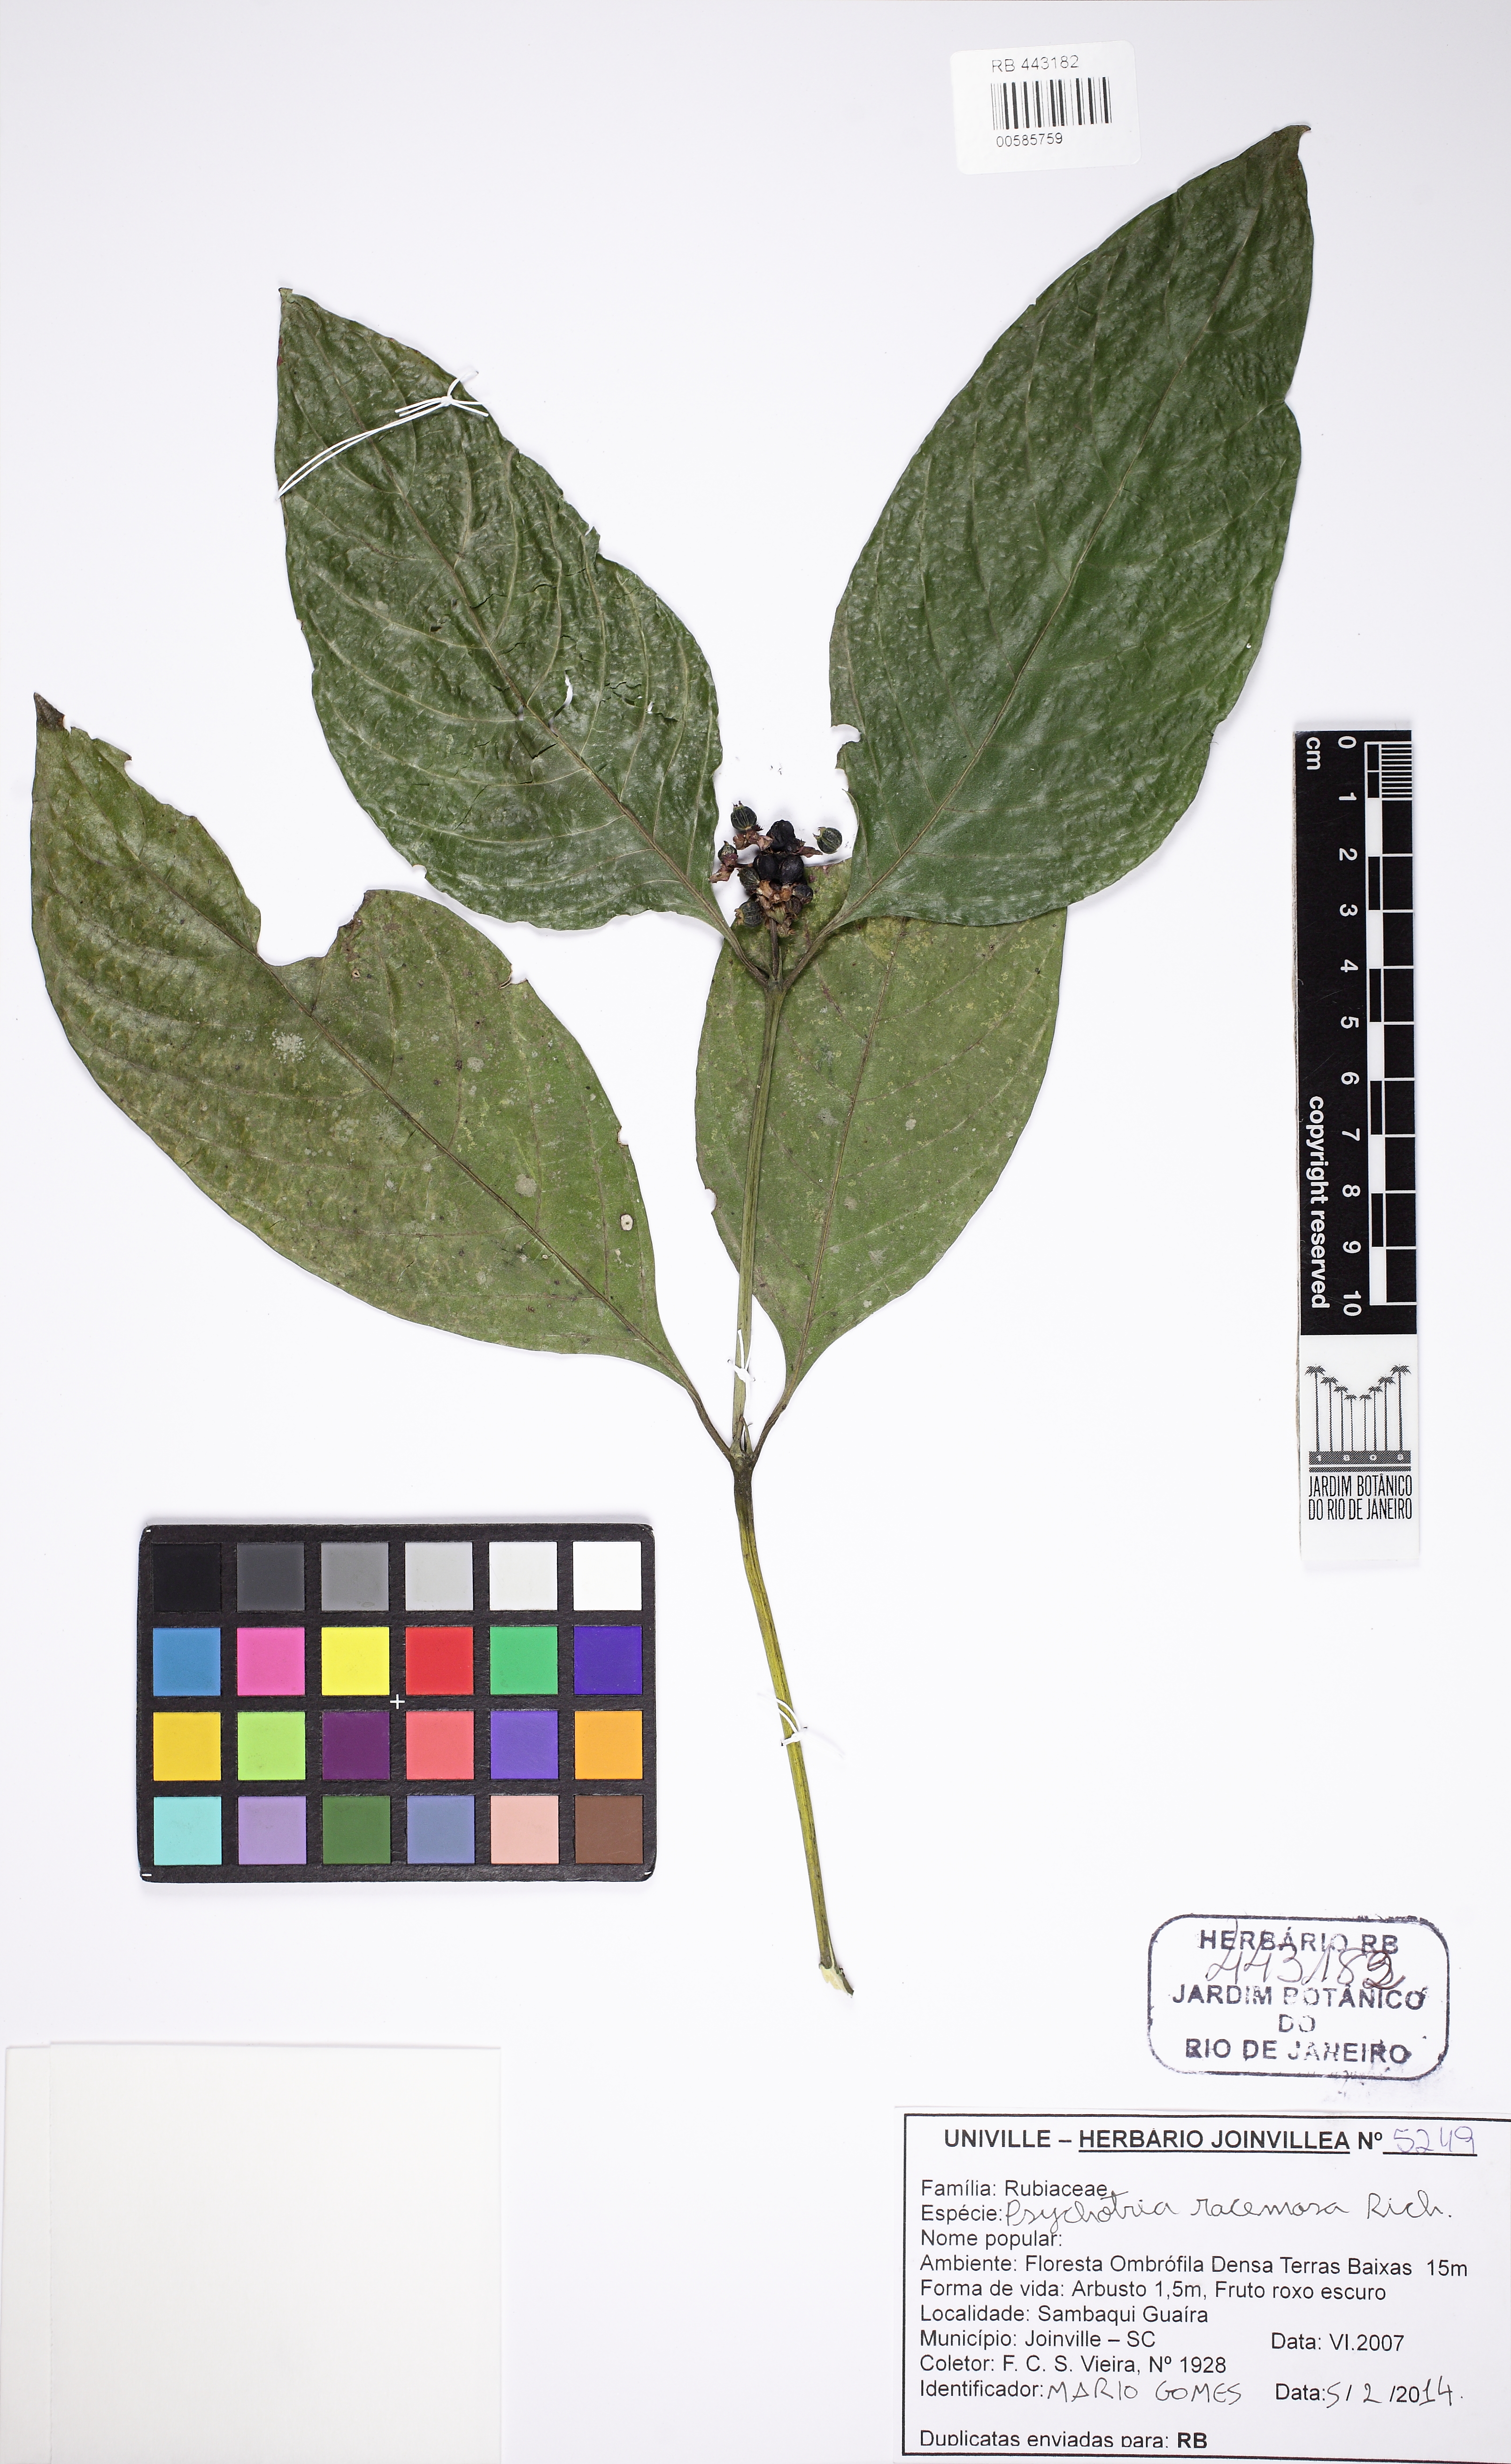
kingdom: Plantae
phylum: Tracheophyta
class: Magnoliopsida
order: Gentianales
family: Rubiaceae
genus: Palicourea
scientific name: Palicourea racemosa
